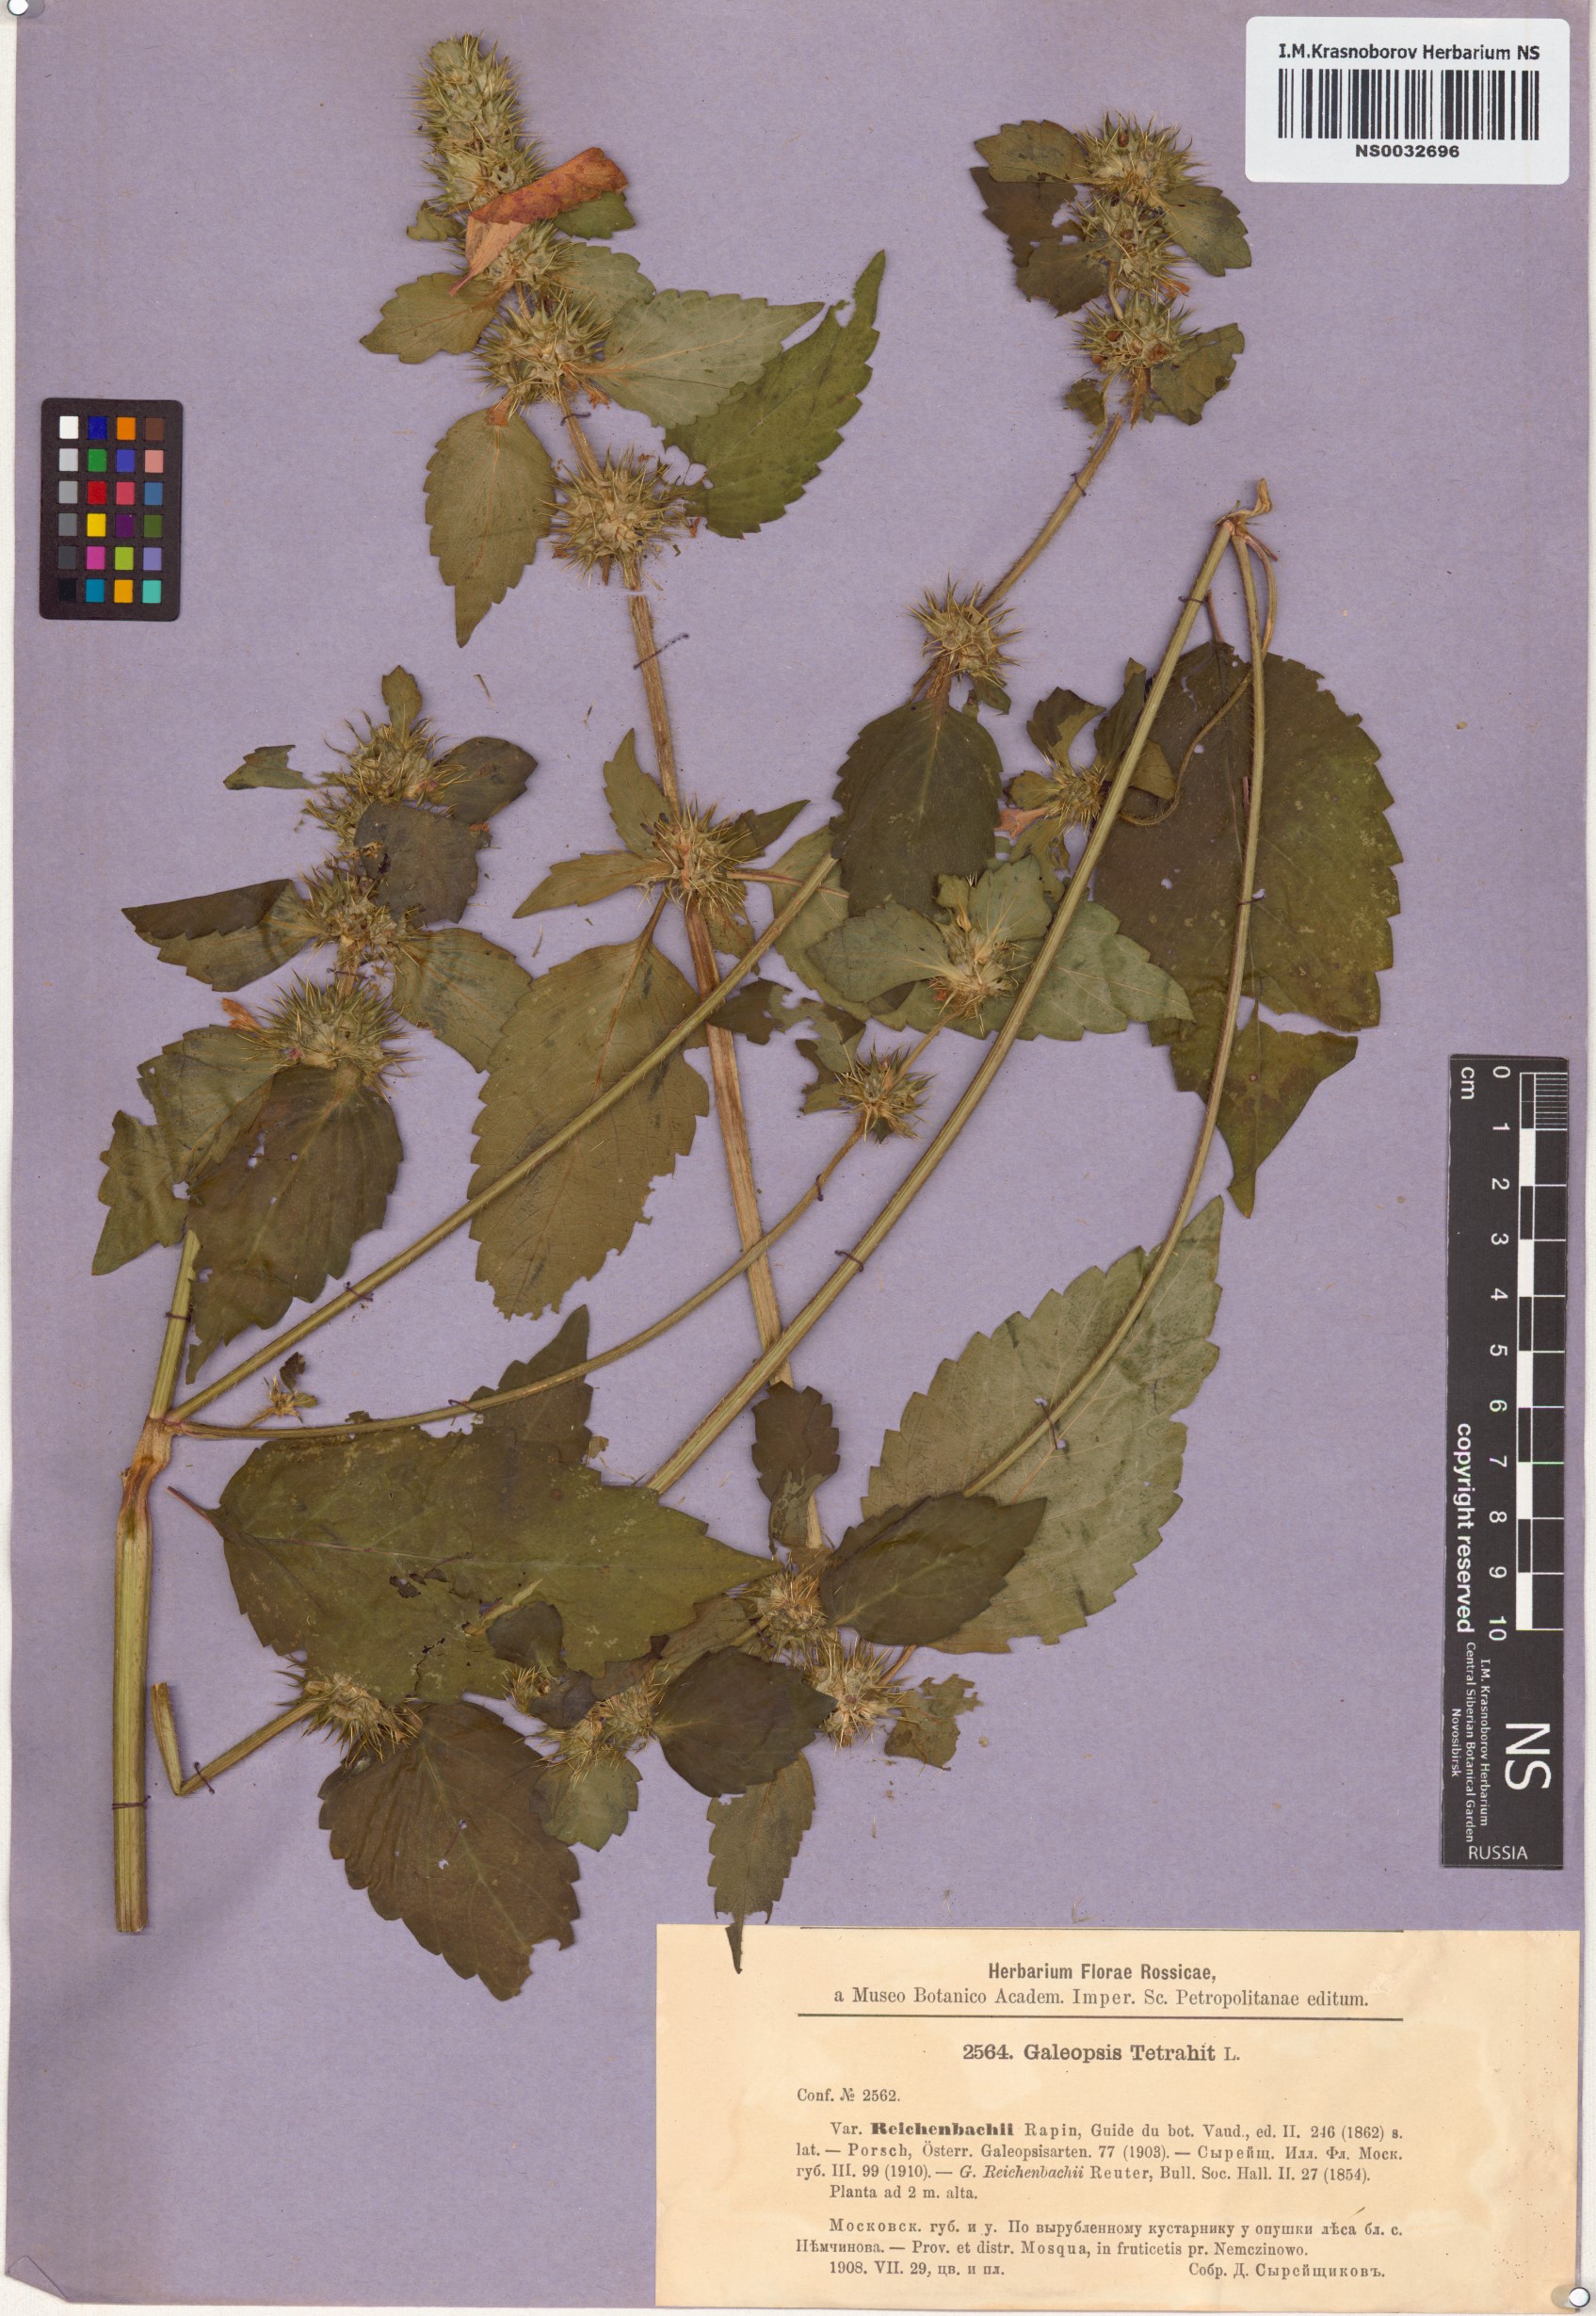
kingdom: Plantae
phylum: Tracheophyta
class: Magnoliopsida
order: Lamiales
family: Lamiaceae
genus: Galeopsis
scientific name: Galeopsis tetrahit
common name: Common hemp-nettle
